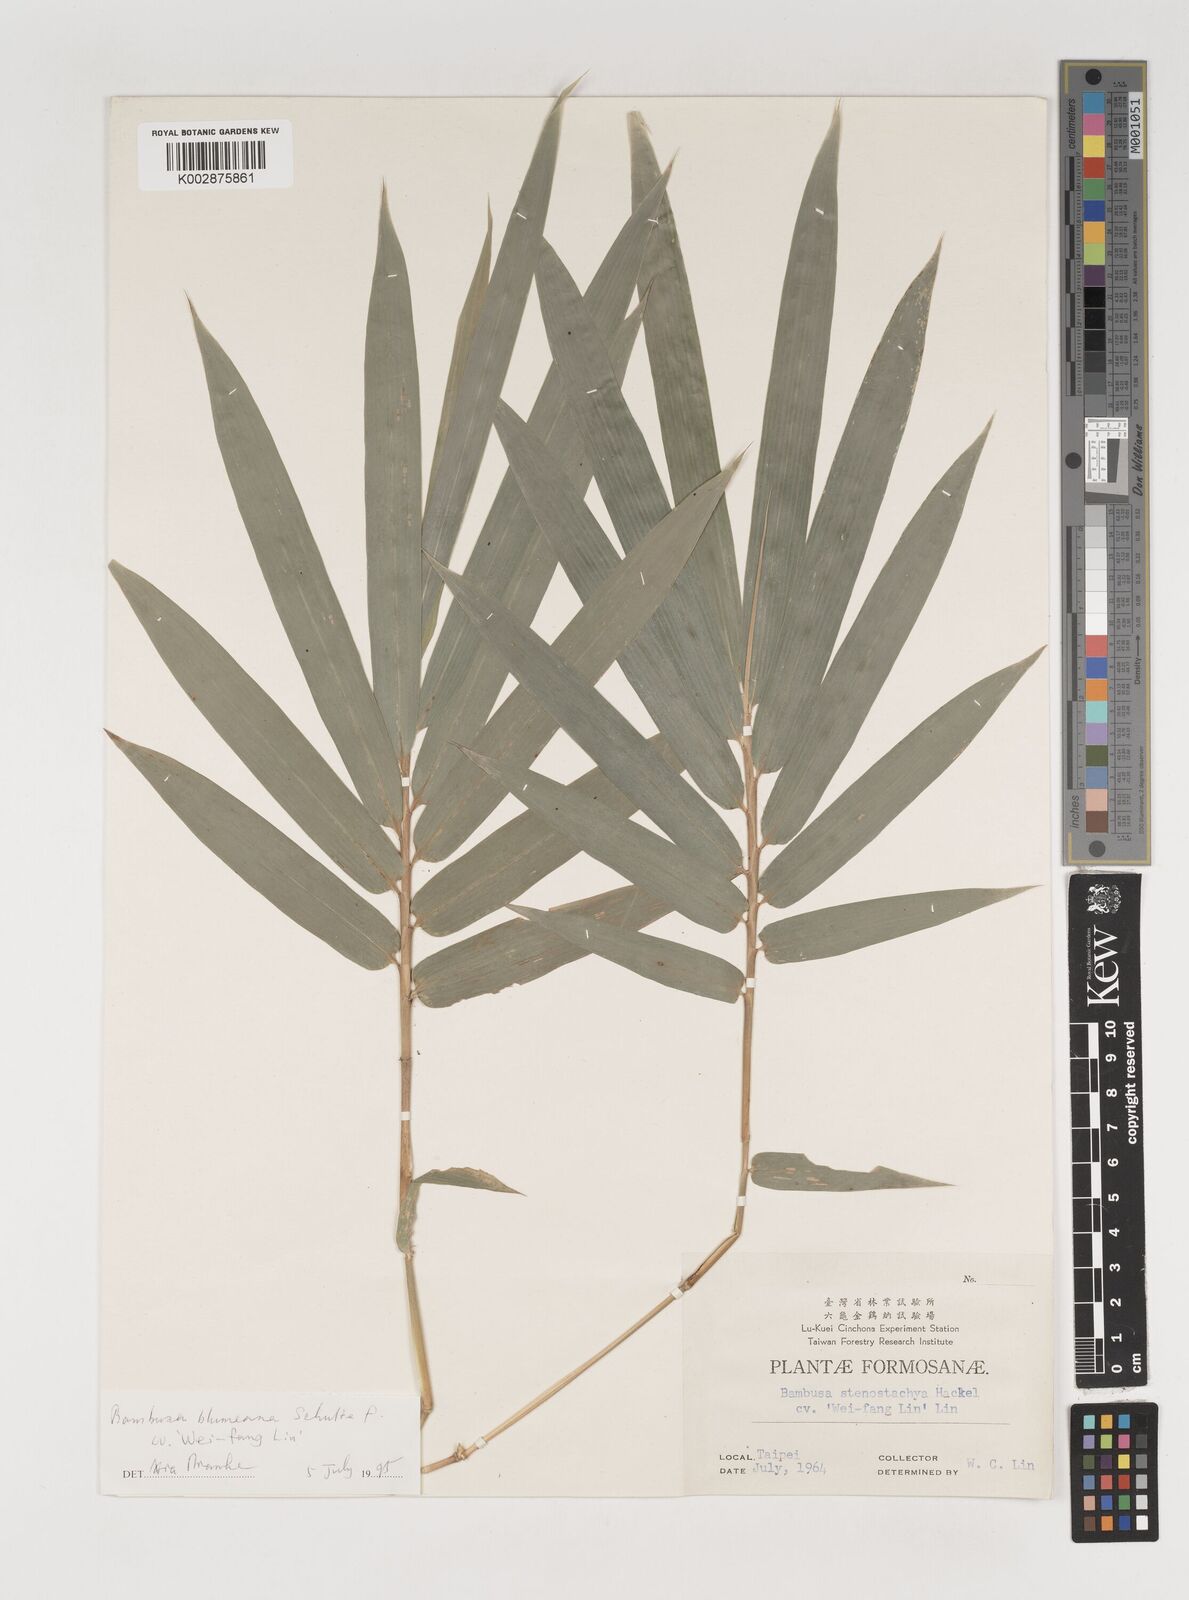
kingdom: Plantae
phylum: Tracheophyta
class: Liliopsida
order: Poales
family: Poaceae
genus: Bambusa
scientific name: Bambusa spinosa
